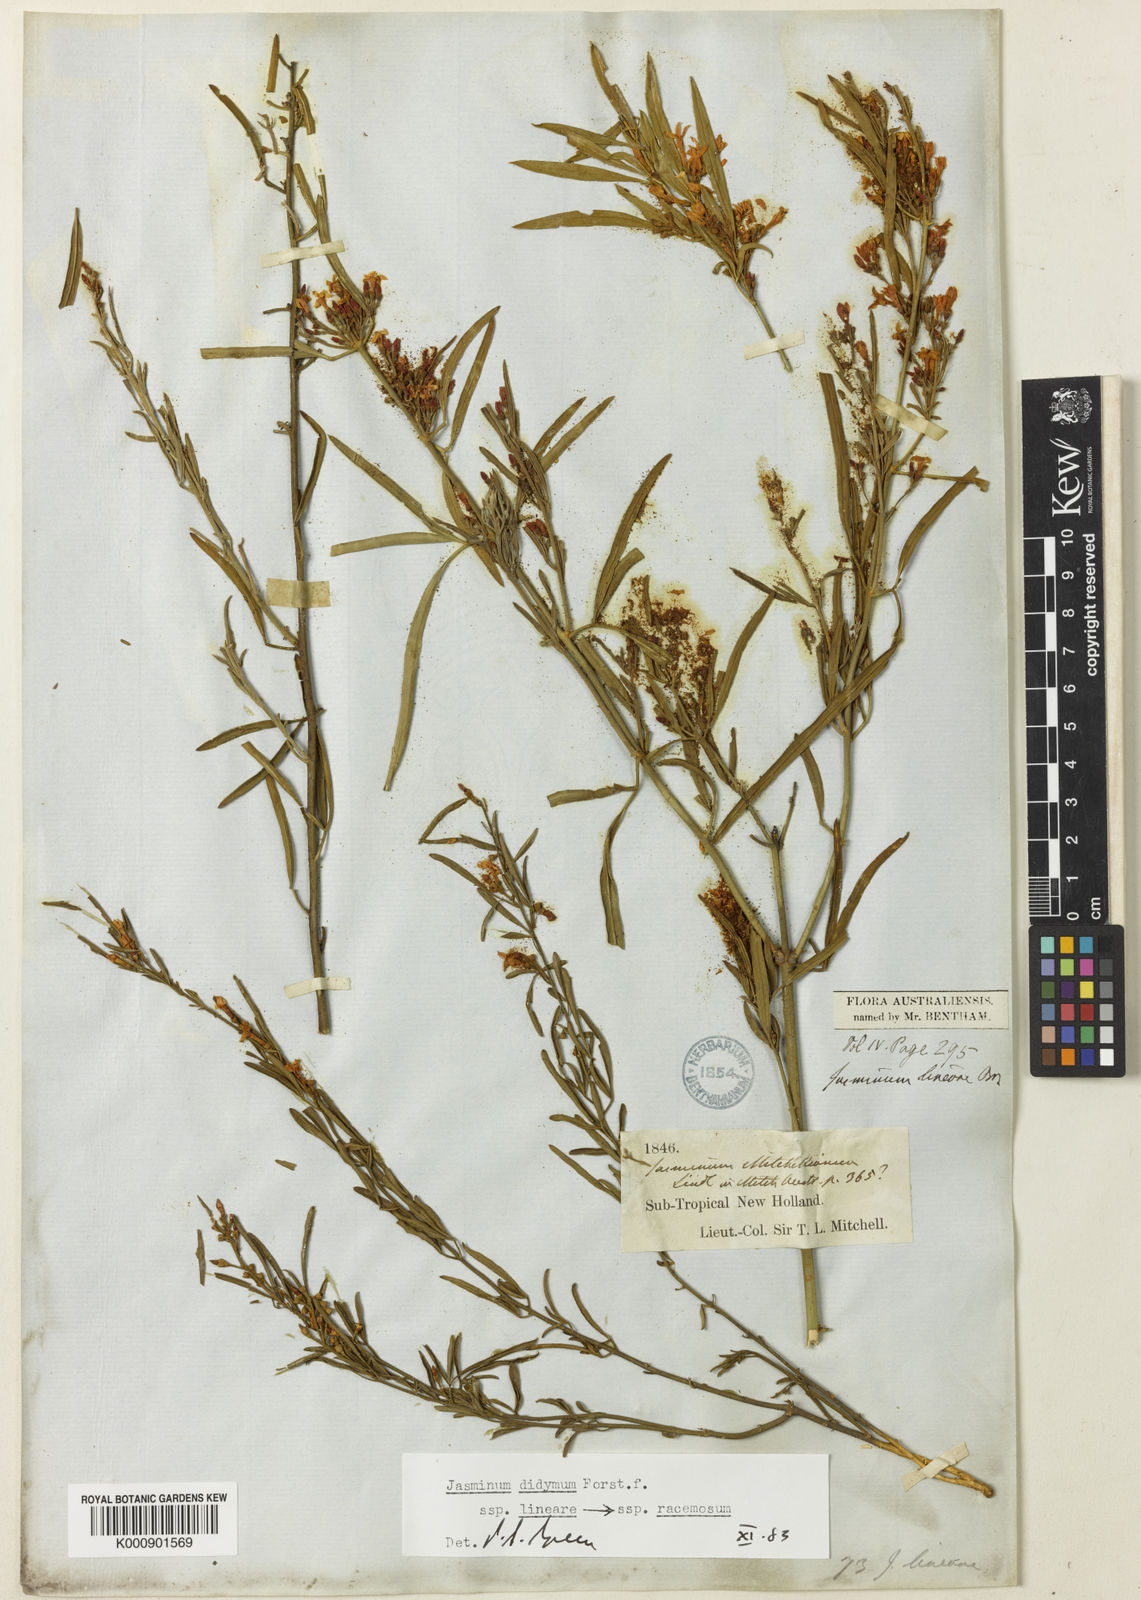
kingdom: Plantae
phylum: Tracheophyta
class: Magnoliopsida
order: Lamiales
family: Oleaceae
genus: Jasminum
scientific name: Jasminum didymum
